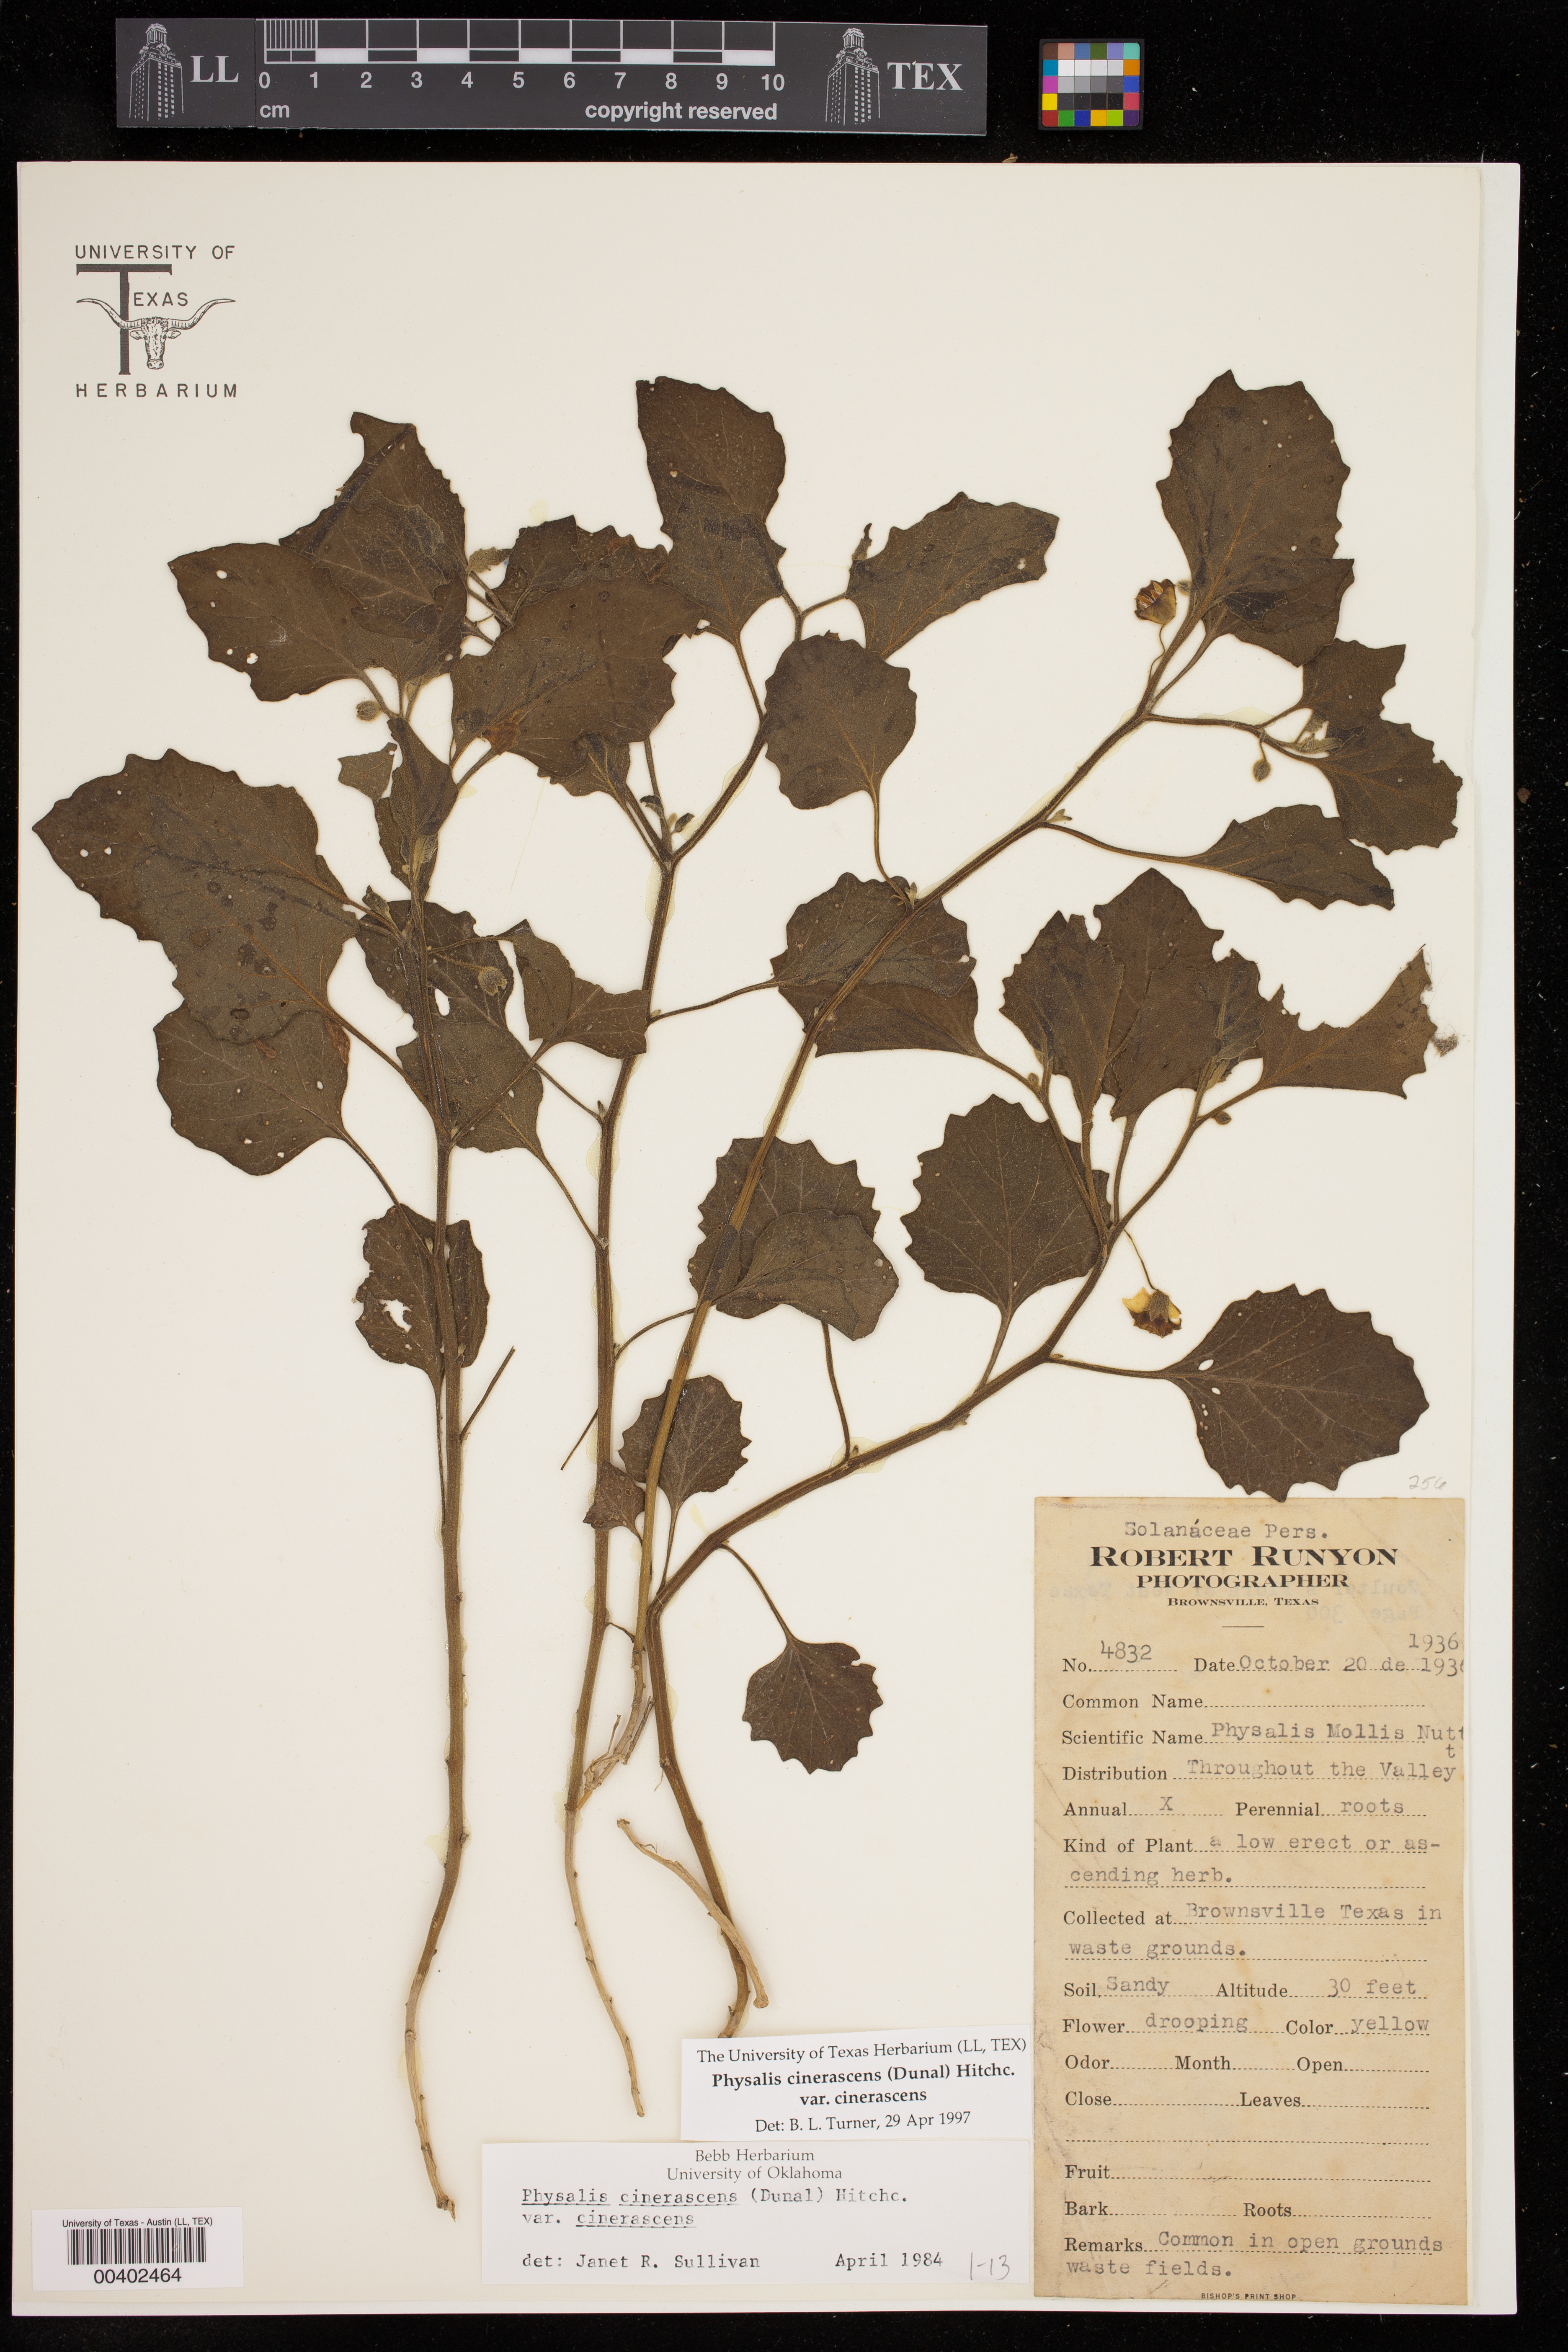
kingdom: Plantae
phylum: Tracheophyta
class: Magnoliopsida
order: Solanales
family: Solanaceae
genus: Physalis
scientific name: Physalis cinerascens
